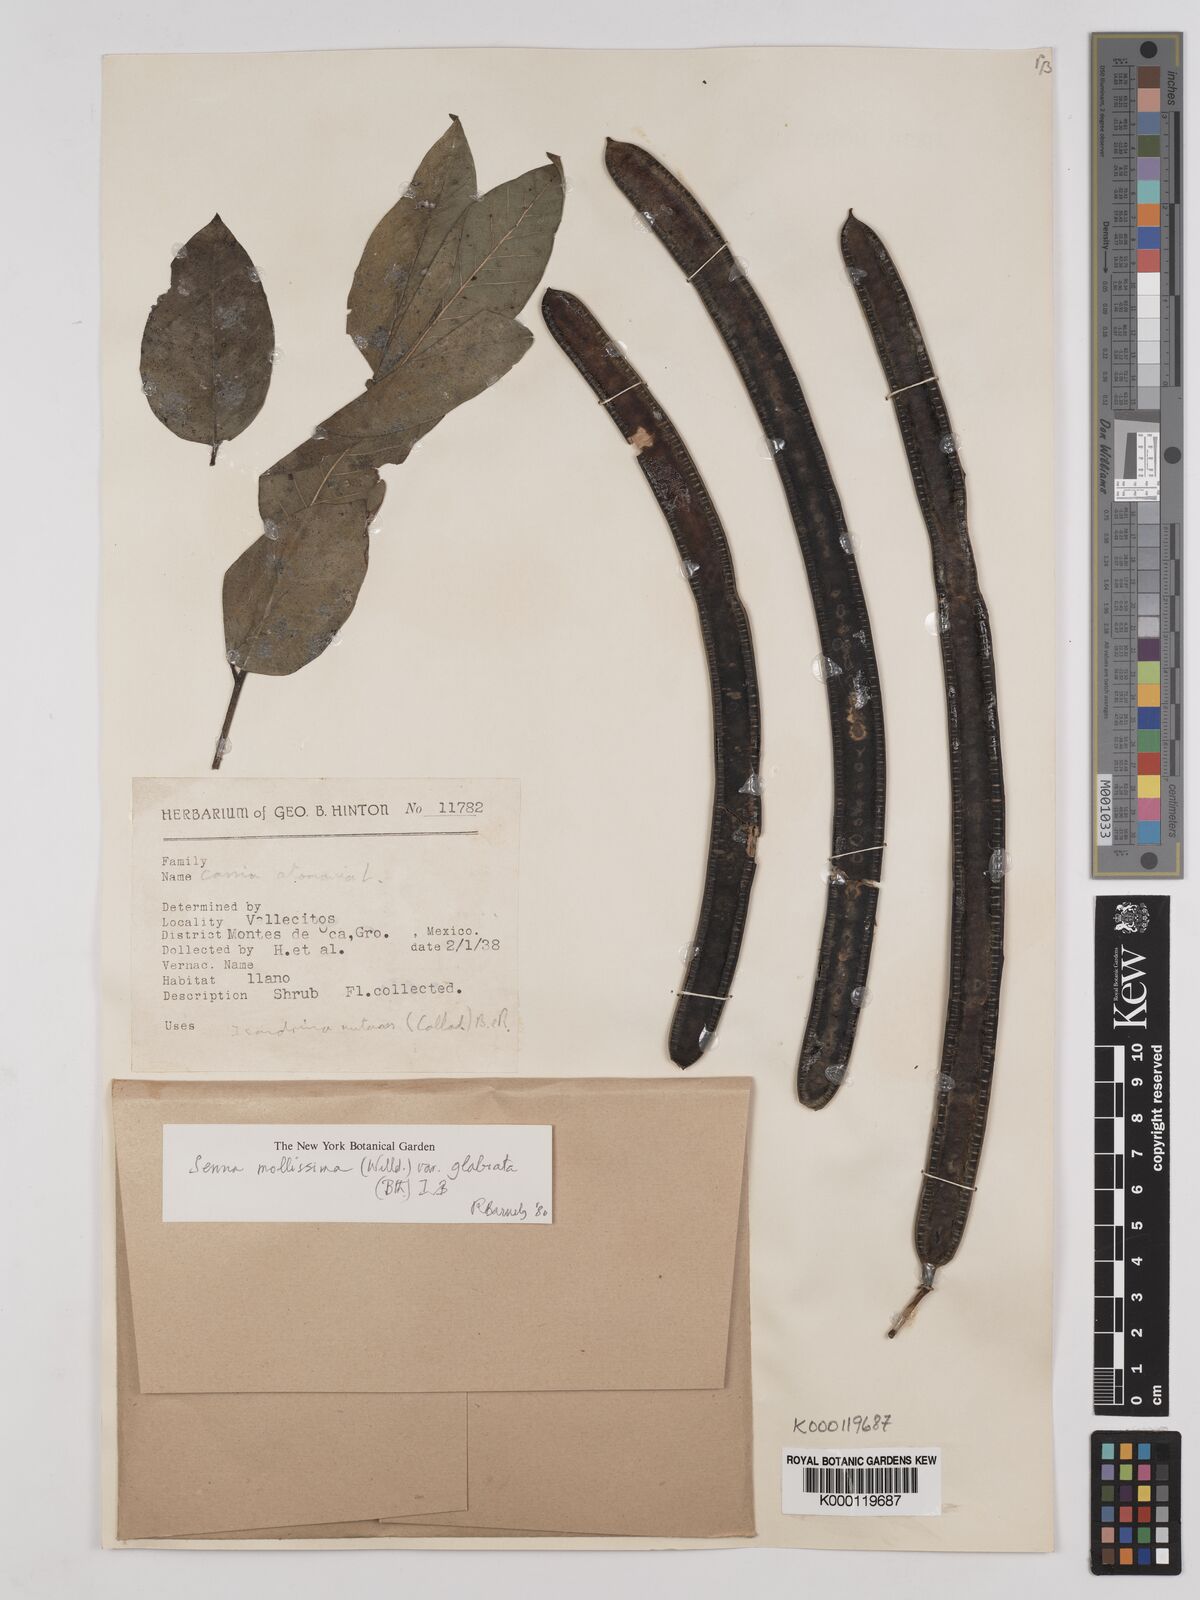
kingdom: Plantae
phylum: Tracheophyta
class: Magnoliopsida
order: Fabales
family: Fabaceae
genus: Senna
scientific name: Senna mollissima
